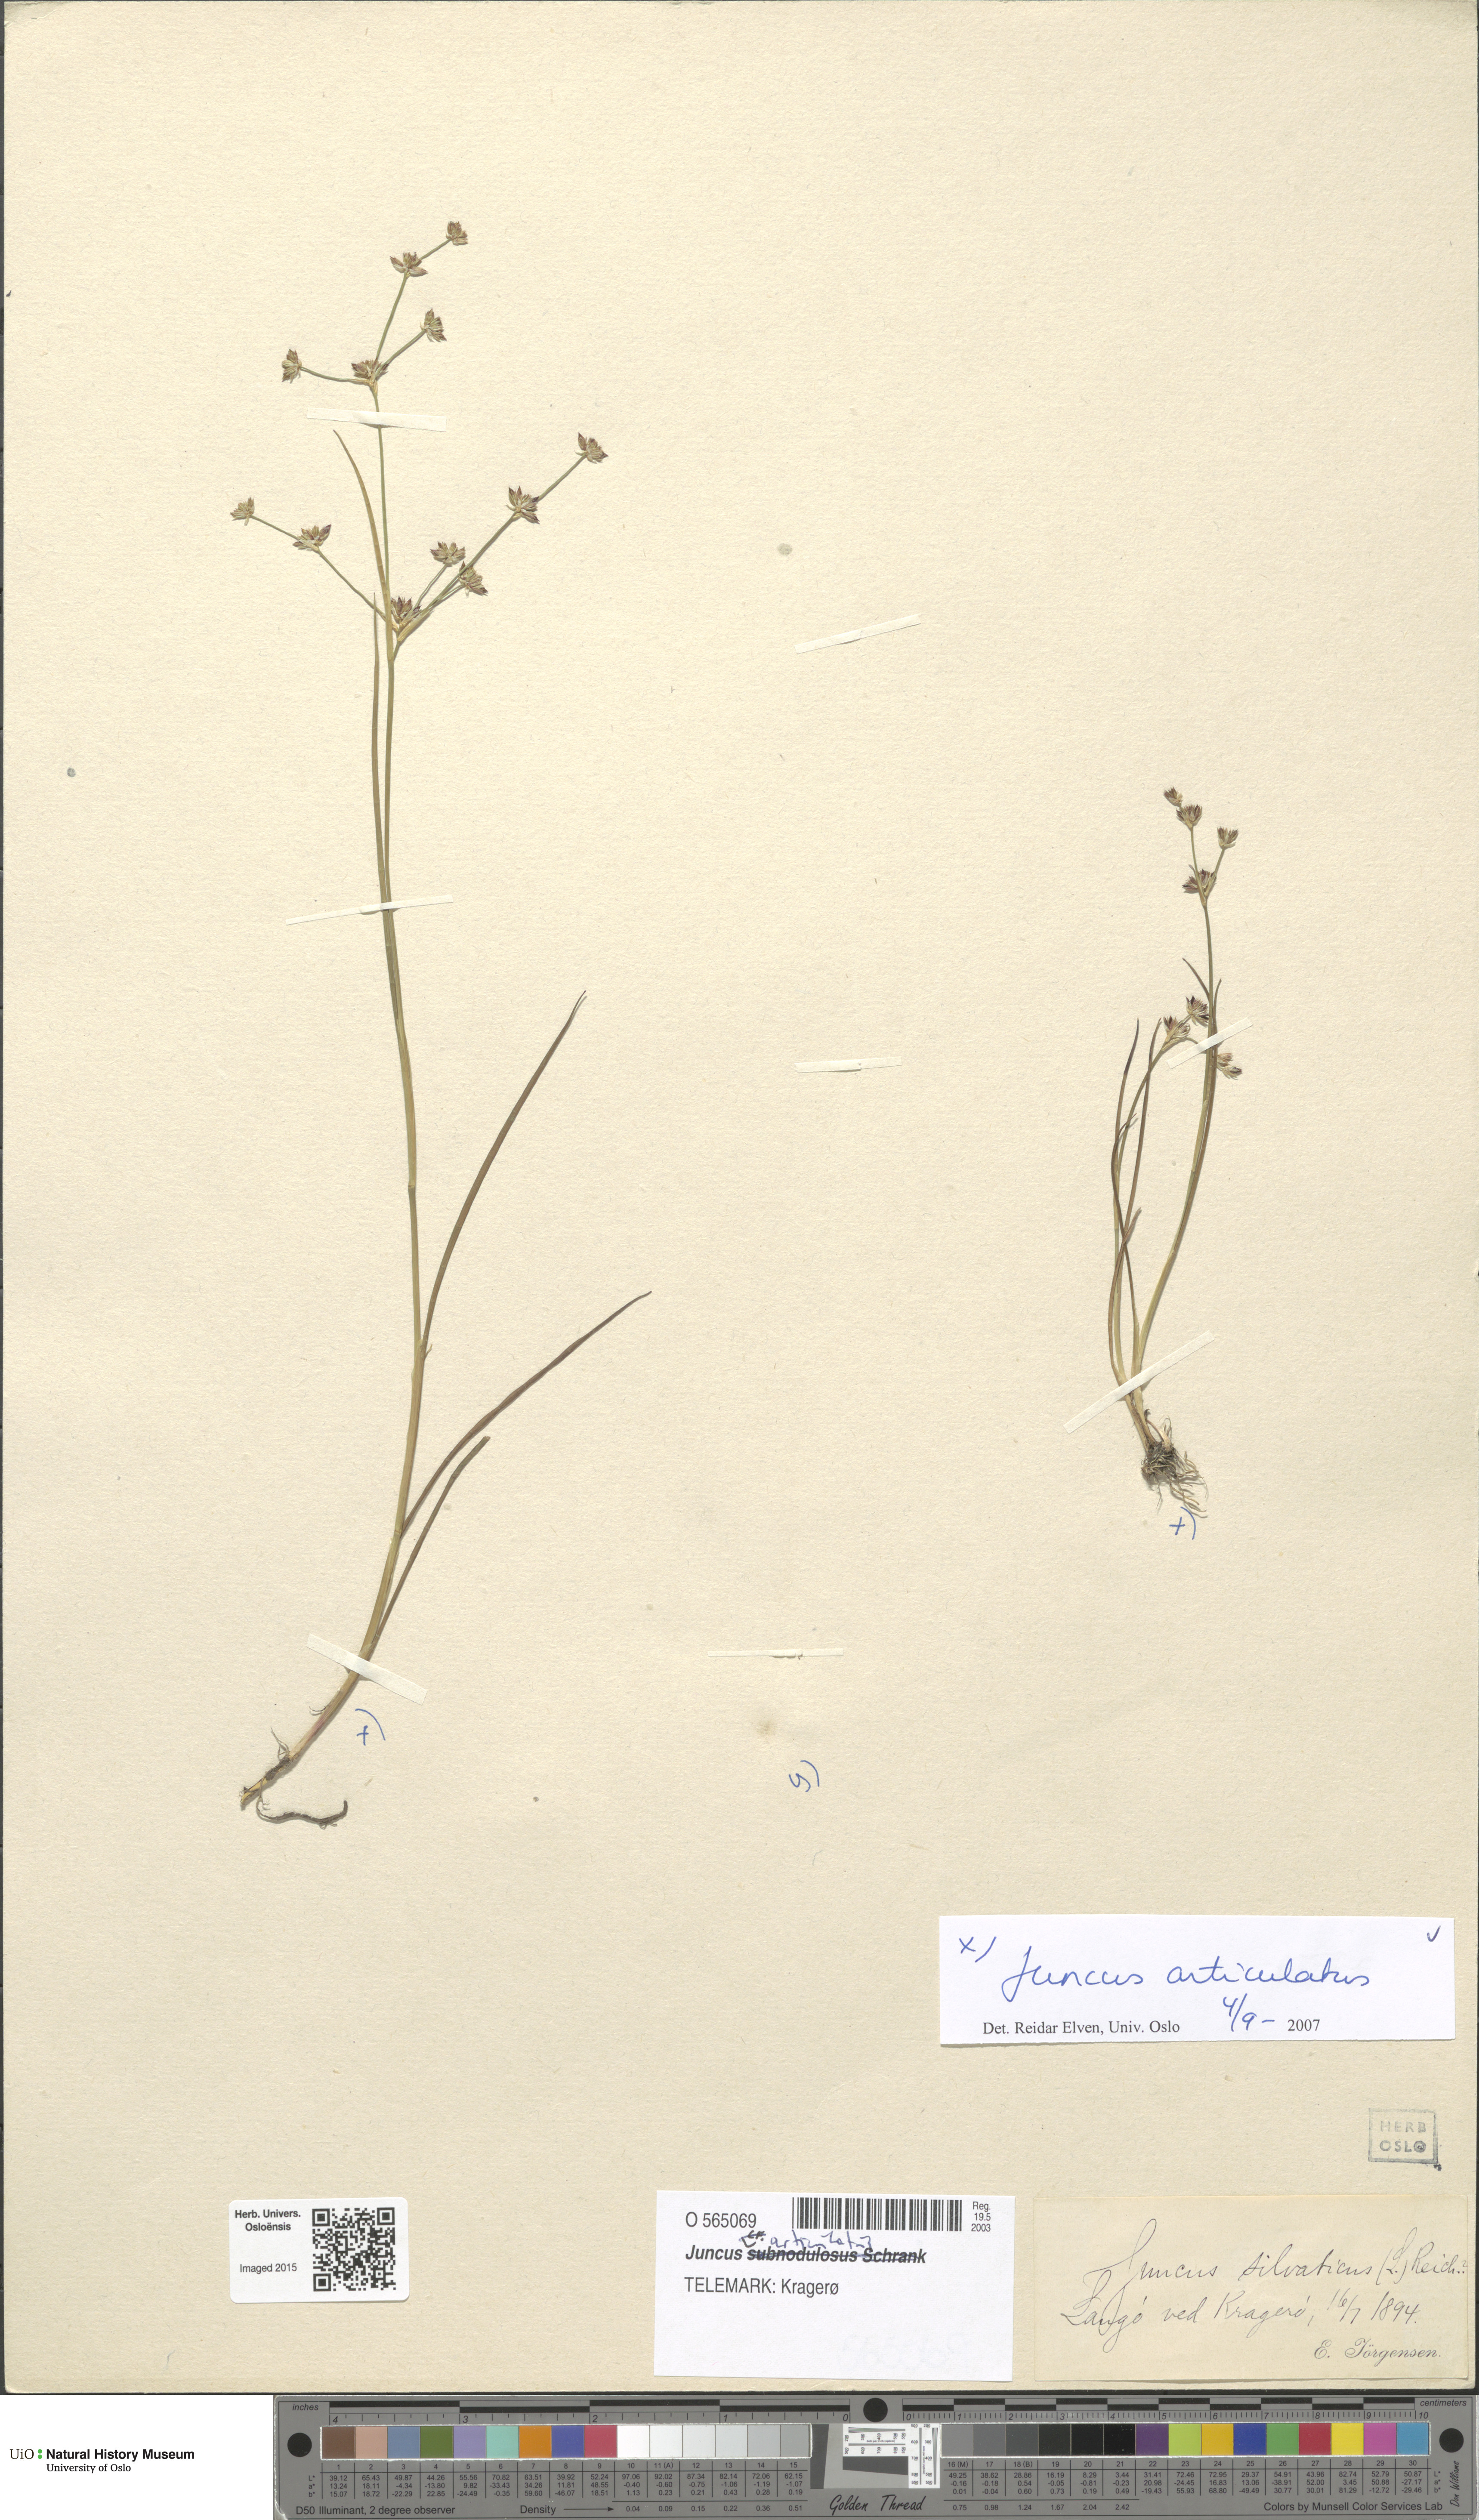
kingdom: Plantae
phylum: Tracheophyta
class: Liliopsida
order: Poales
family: Juncaceae
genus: Juncus
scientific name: Juncus articulatus
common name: Jointed rush
